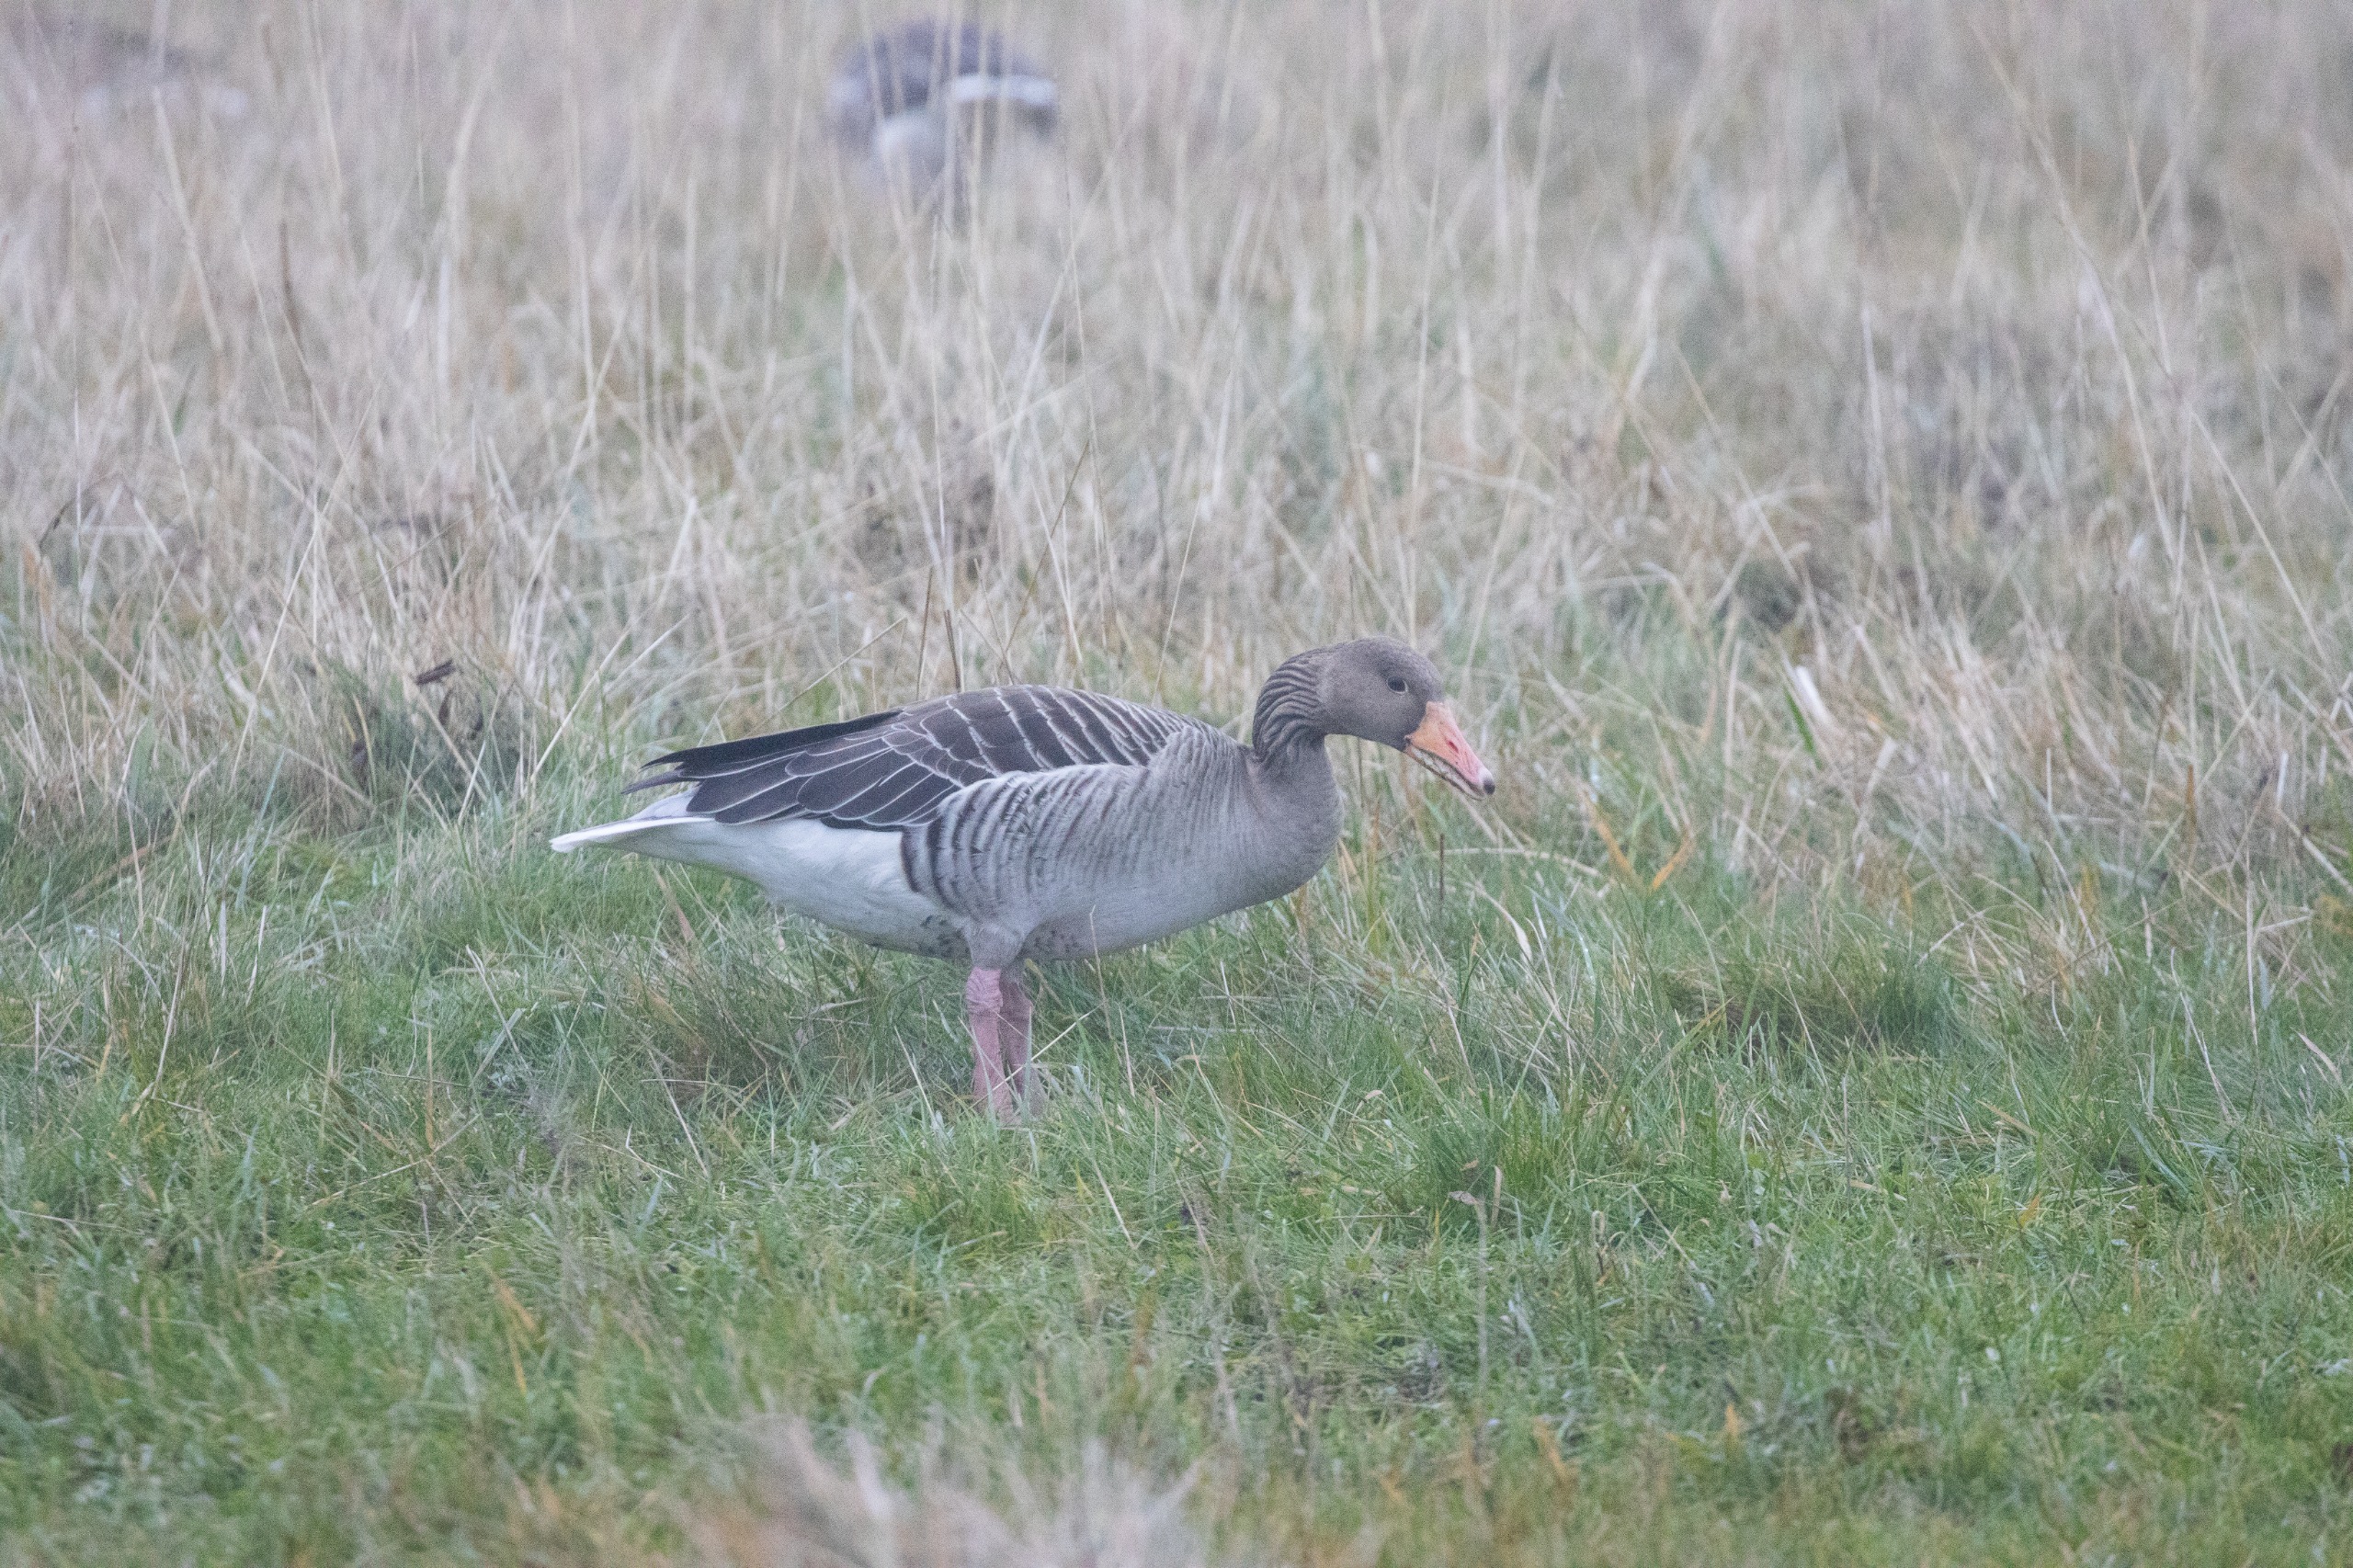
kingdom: Animalia
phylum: Chordata
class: Aves
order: Anseriformes
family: Anatidae
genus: Anser
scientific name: Anser anser
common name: Grågås
